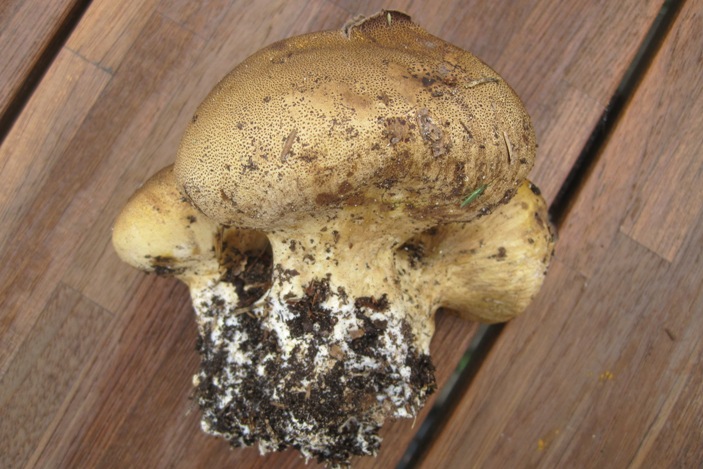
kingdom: Fungi
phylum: Basidiomycota
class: Agaricomycetes
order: Boletales
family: Sclerodermataceae
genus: Scleroderma
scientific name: Scleroderma verrucosum
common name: stilket bruskbold
